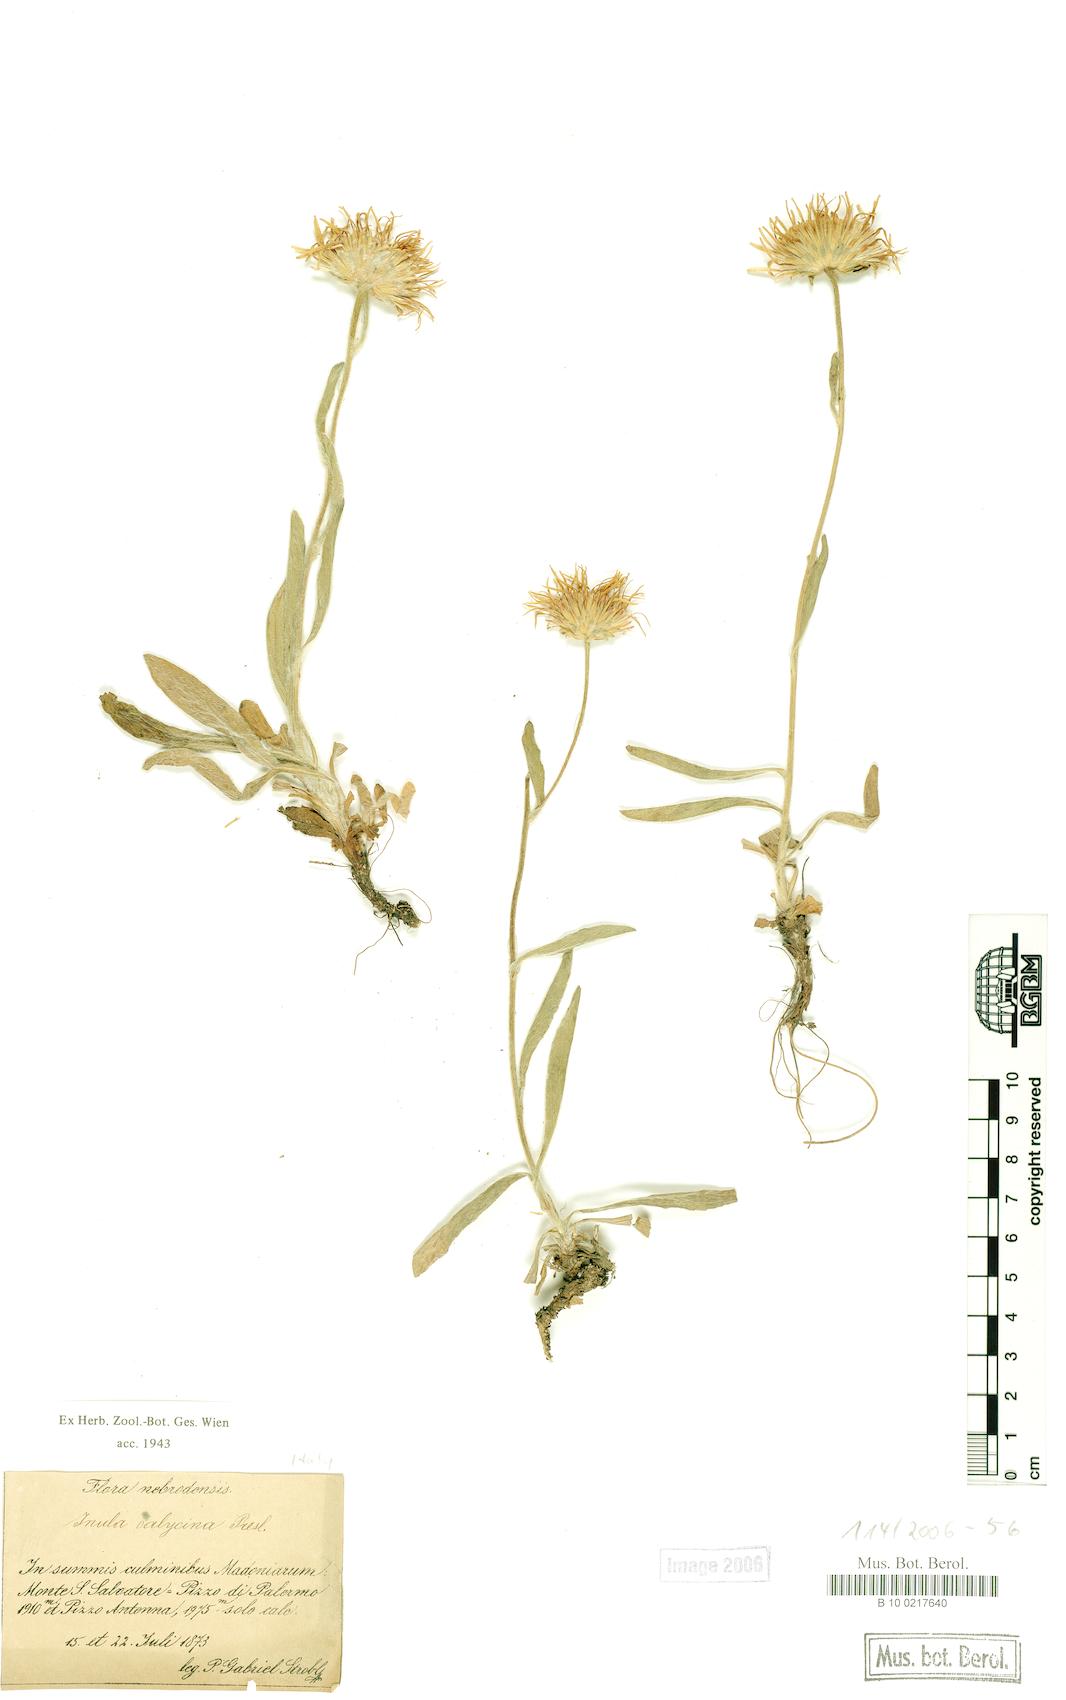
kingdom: Plantae
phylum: Tracheophyta
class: Magnoliopsida
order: Asterales
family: Asteraceae
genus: Pentanema
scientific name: Pentanema montanum
